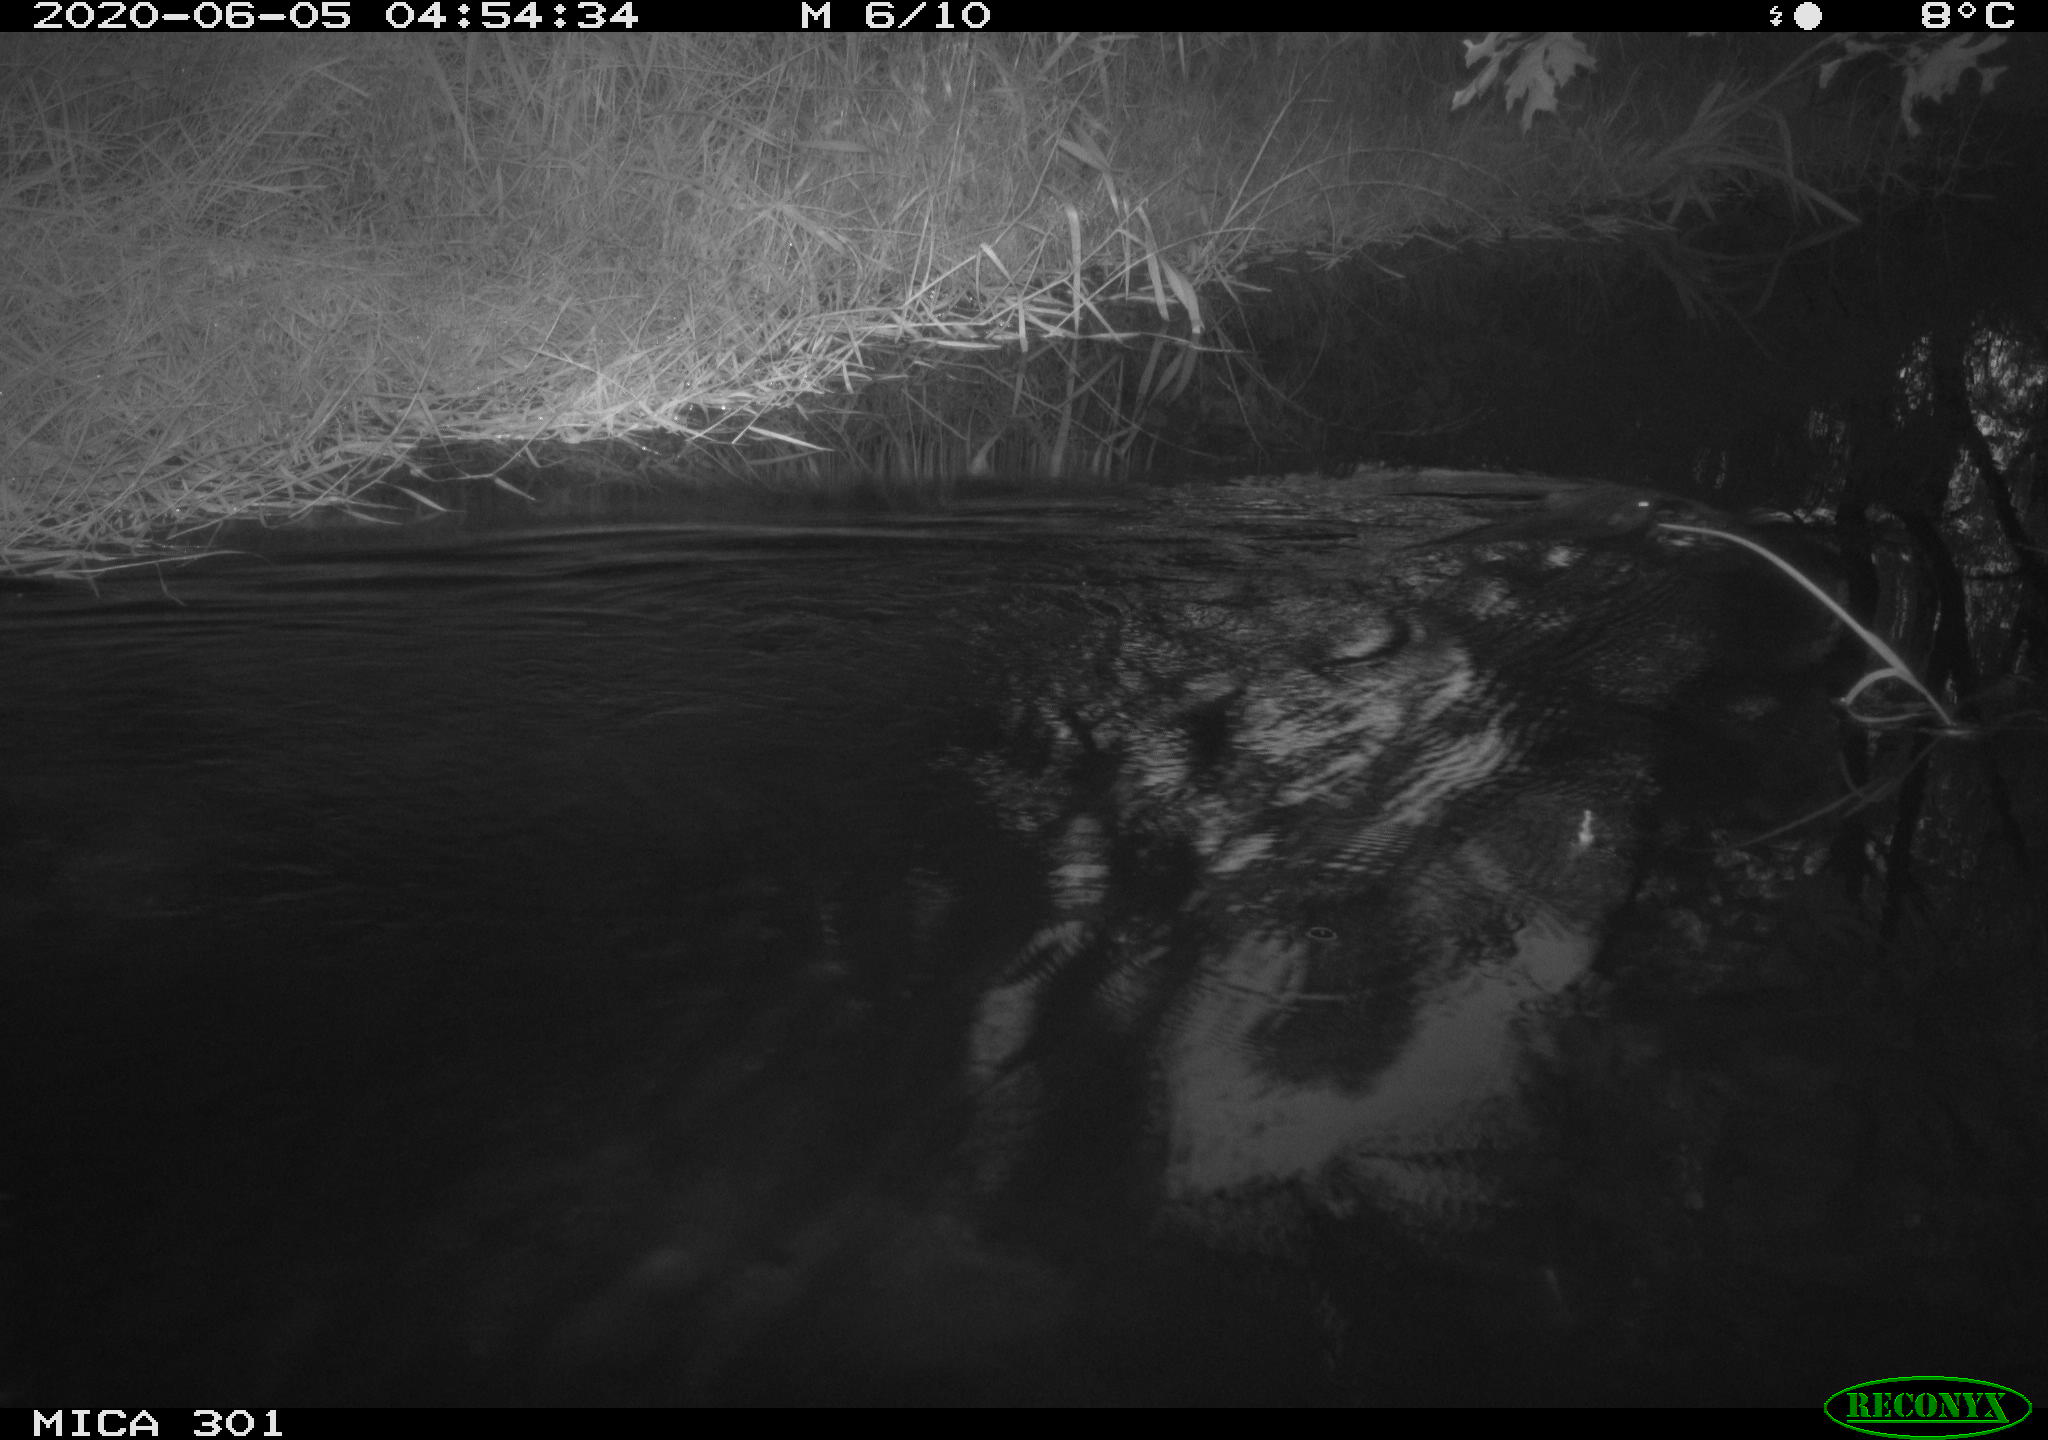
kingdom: Animalia
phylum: Chordata
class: Mammalia
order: Rodentia
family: Castoridae
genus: Castor
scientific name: Castor fiber
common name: Eurasian beaver
